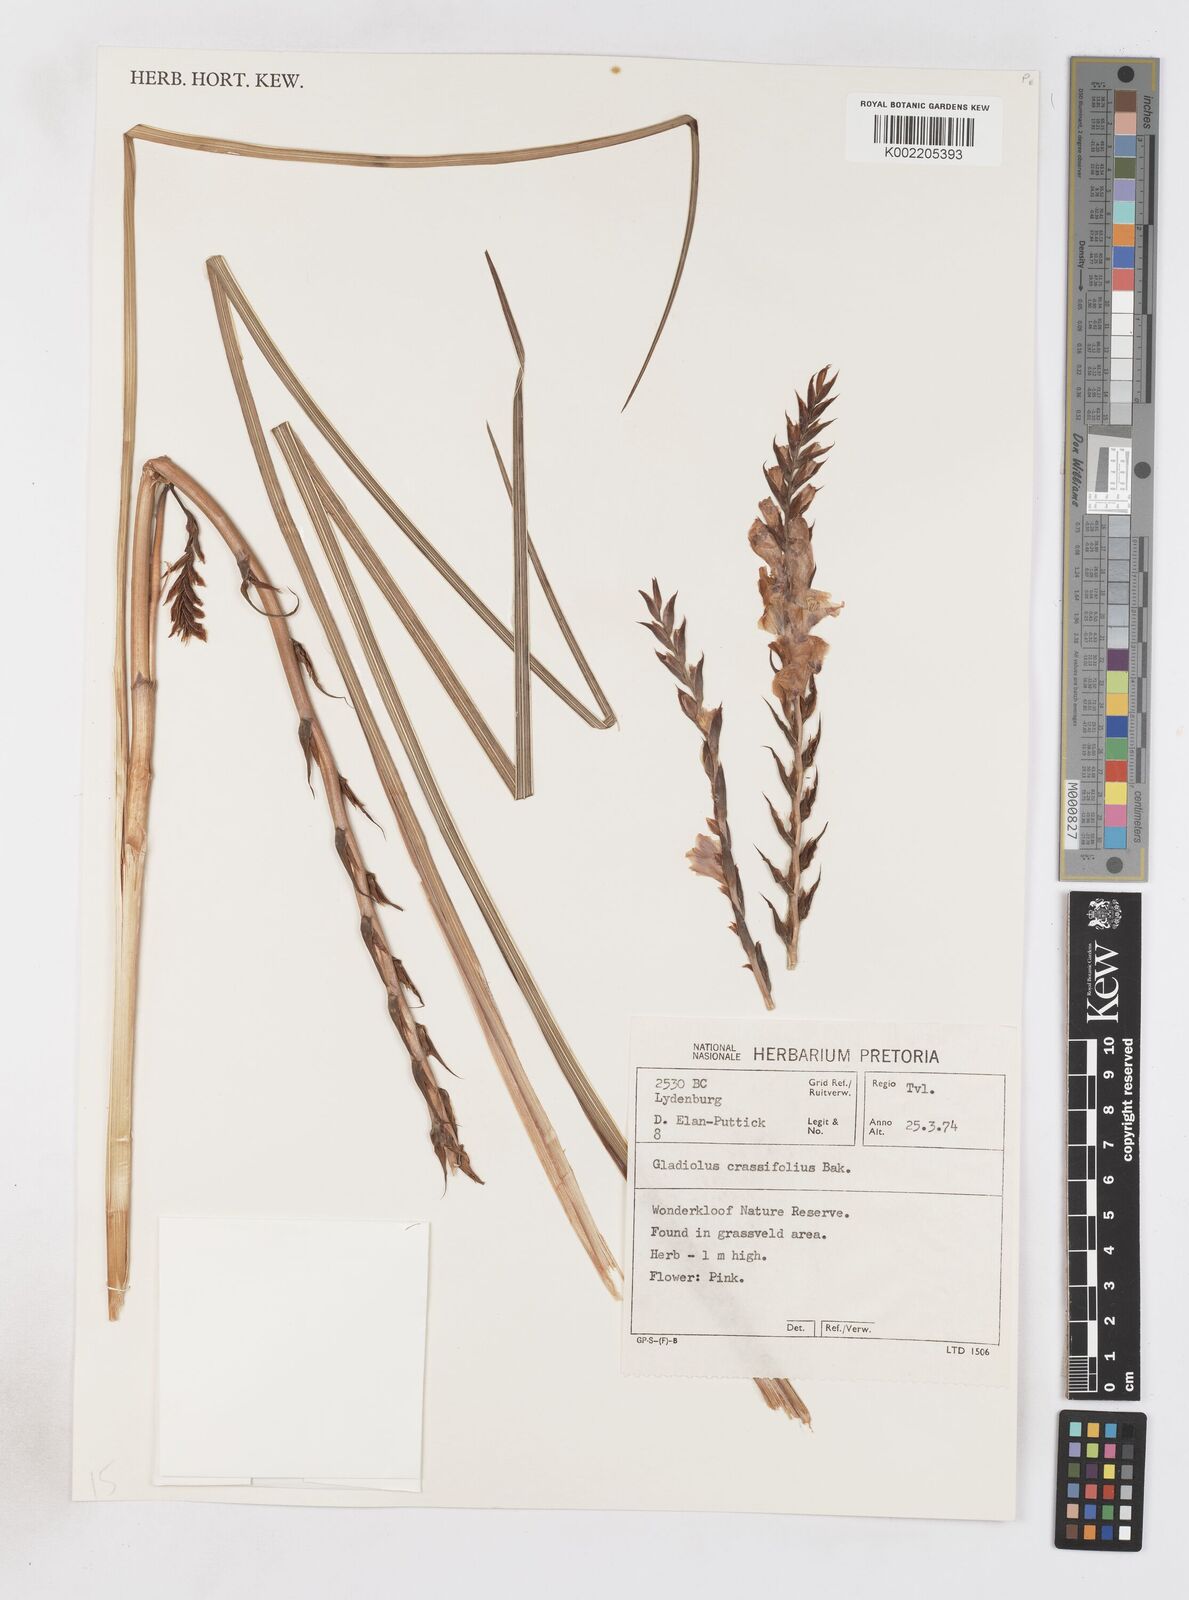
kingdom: Plantae
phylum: Tracheophyta
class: Liliopsida
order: Asparagales
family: Iridaceae
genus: Gladiolus
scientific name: Gladiolus crassifolius
